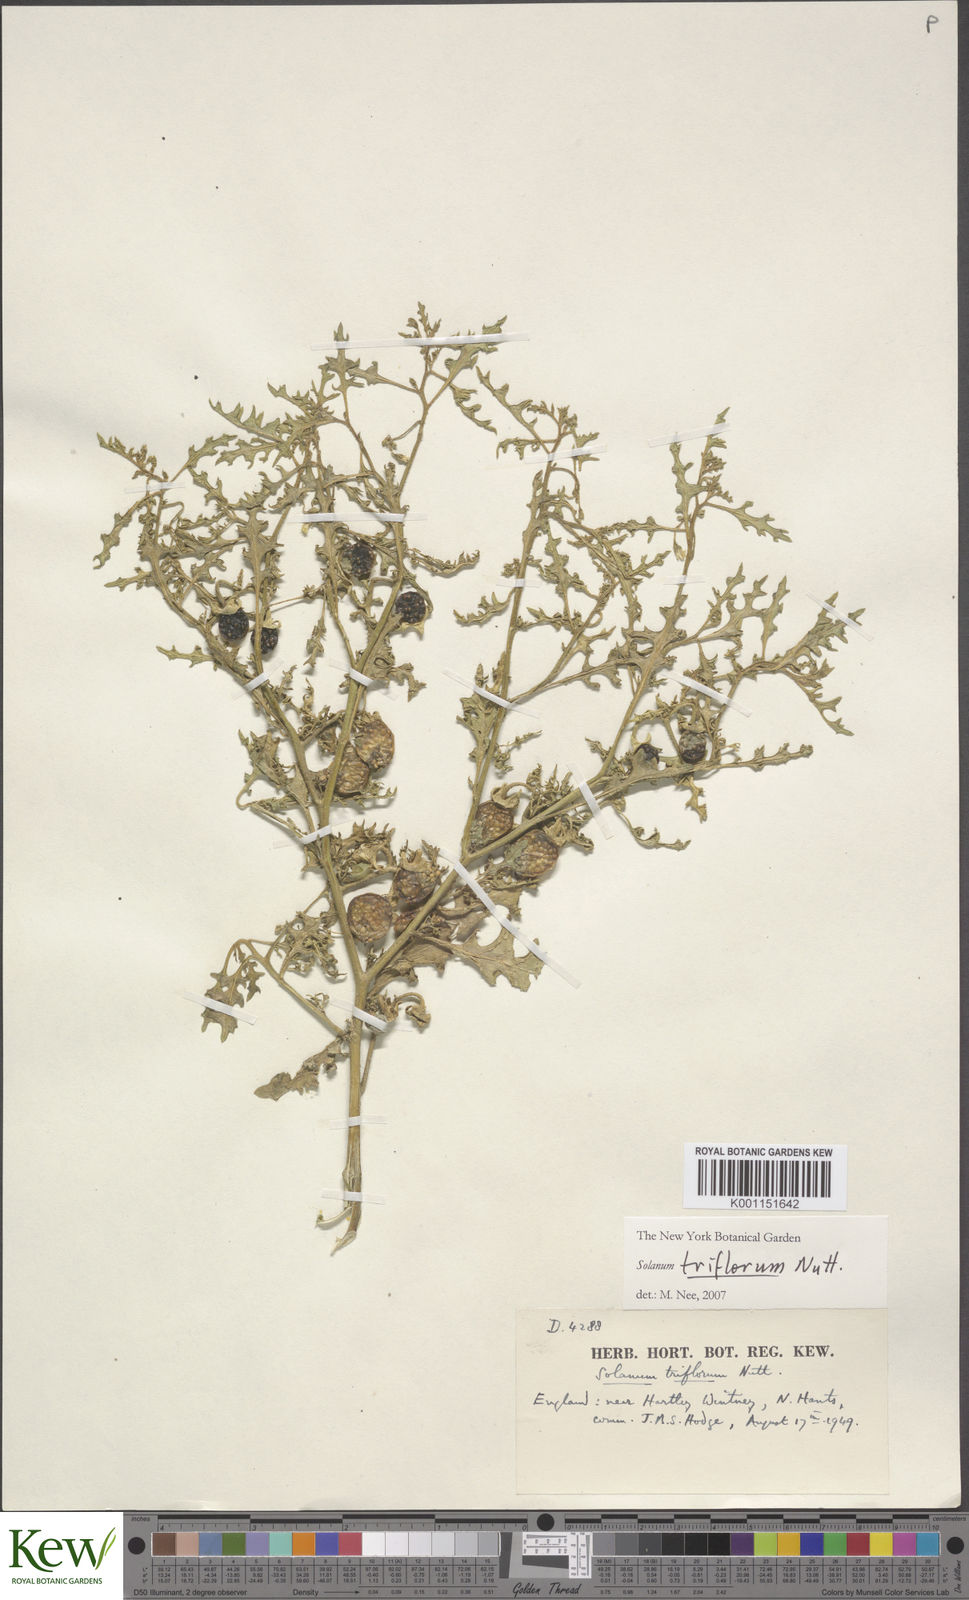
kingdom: Plantae
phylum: Tracheophyta
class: Magnoliopsida
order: Solanales
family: Solanaceae
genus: Solanum
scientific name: Solanum triflorum
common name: Small nightshade
